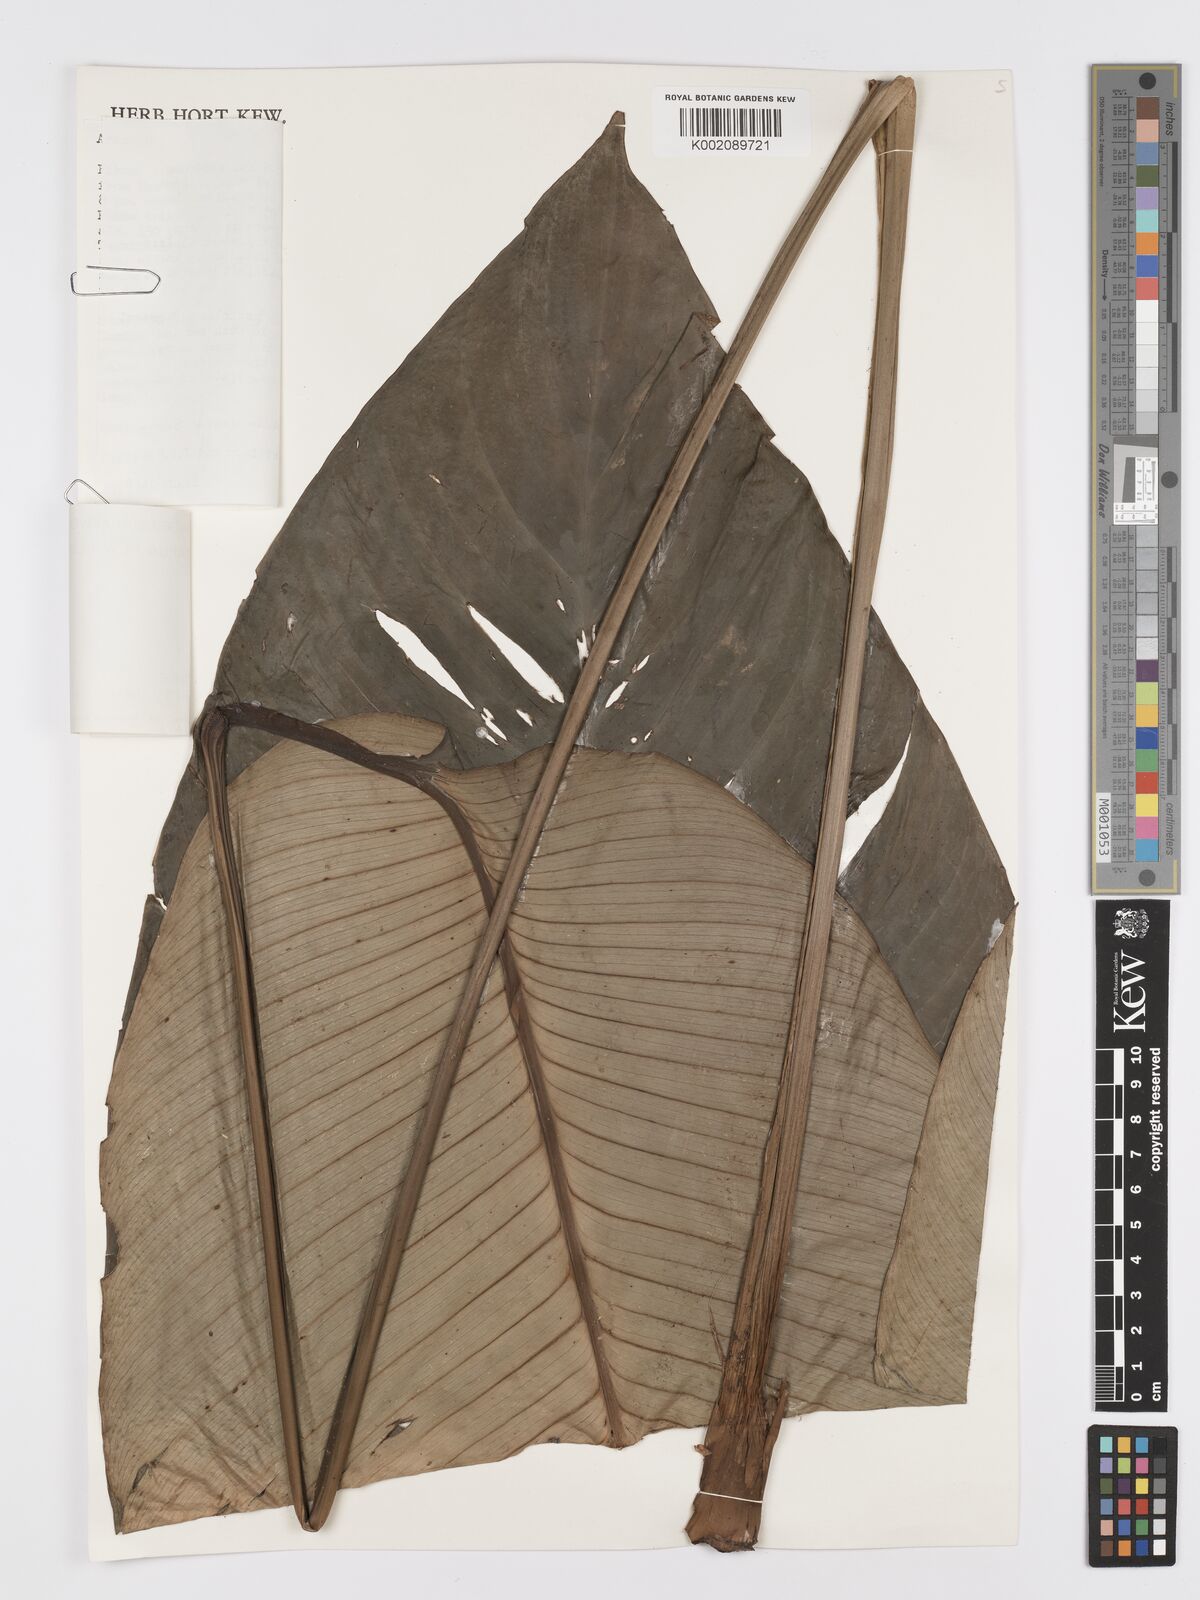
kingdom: Plantae
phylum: Tracheophyta
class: Liliopsida
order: Alismatales
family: Araceae
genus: Holochlamys
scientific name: Holochlamys beccarii
